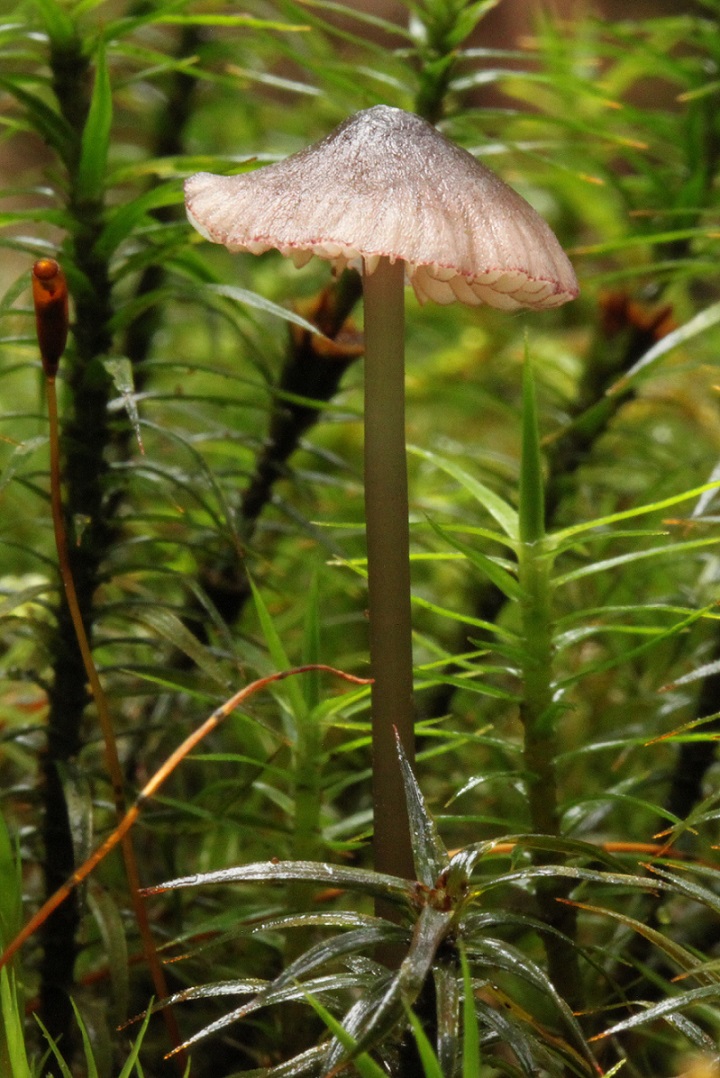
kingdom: Fungi
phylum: Basidiomycota
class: Agaricomycetes
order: Agaricales
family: Mycenaceae
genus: Mycena
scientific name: Mycena purpureofusca
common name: purpur-huesvamp
